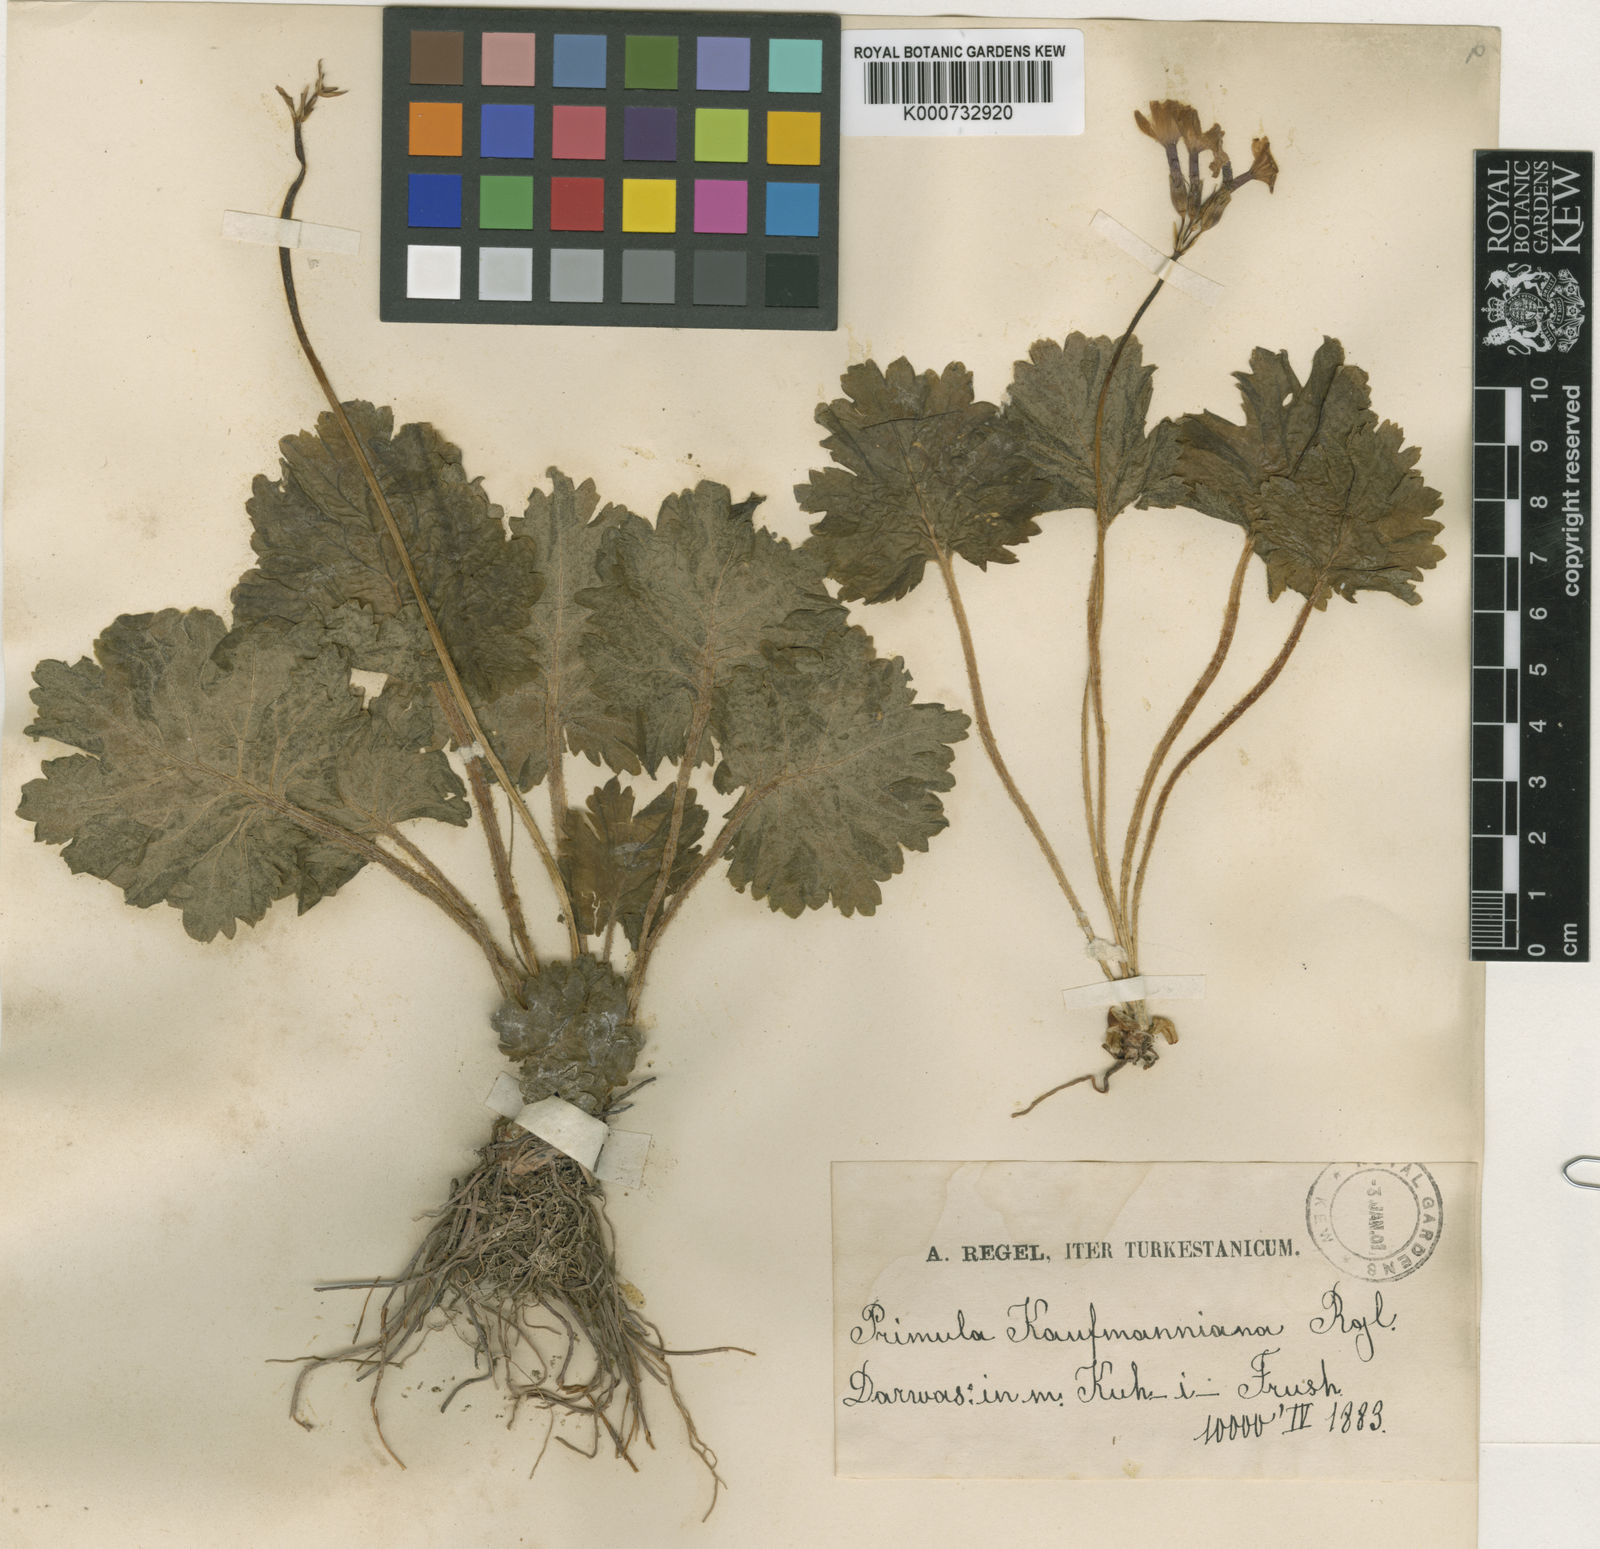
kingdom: Plantae
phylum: Tracheophyta
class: Magnoliopsida
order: Ericales
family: Primulaceae
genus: Primula
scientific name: Primula kaufmanniana
